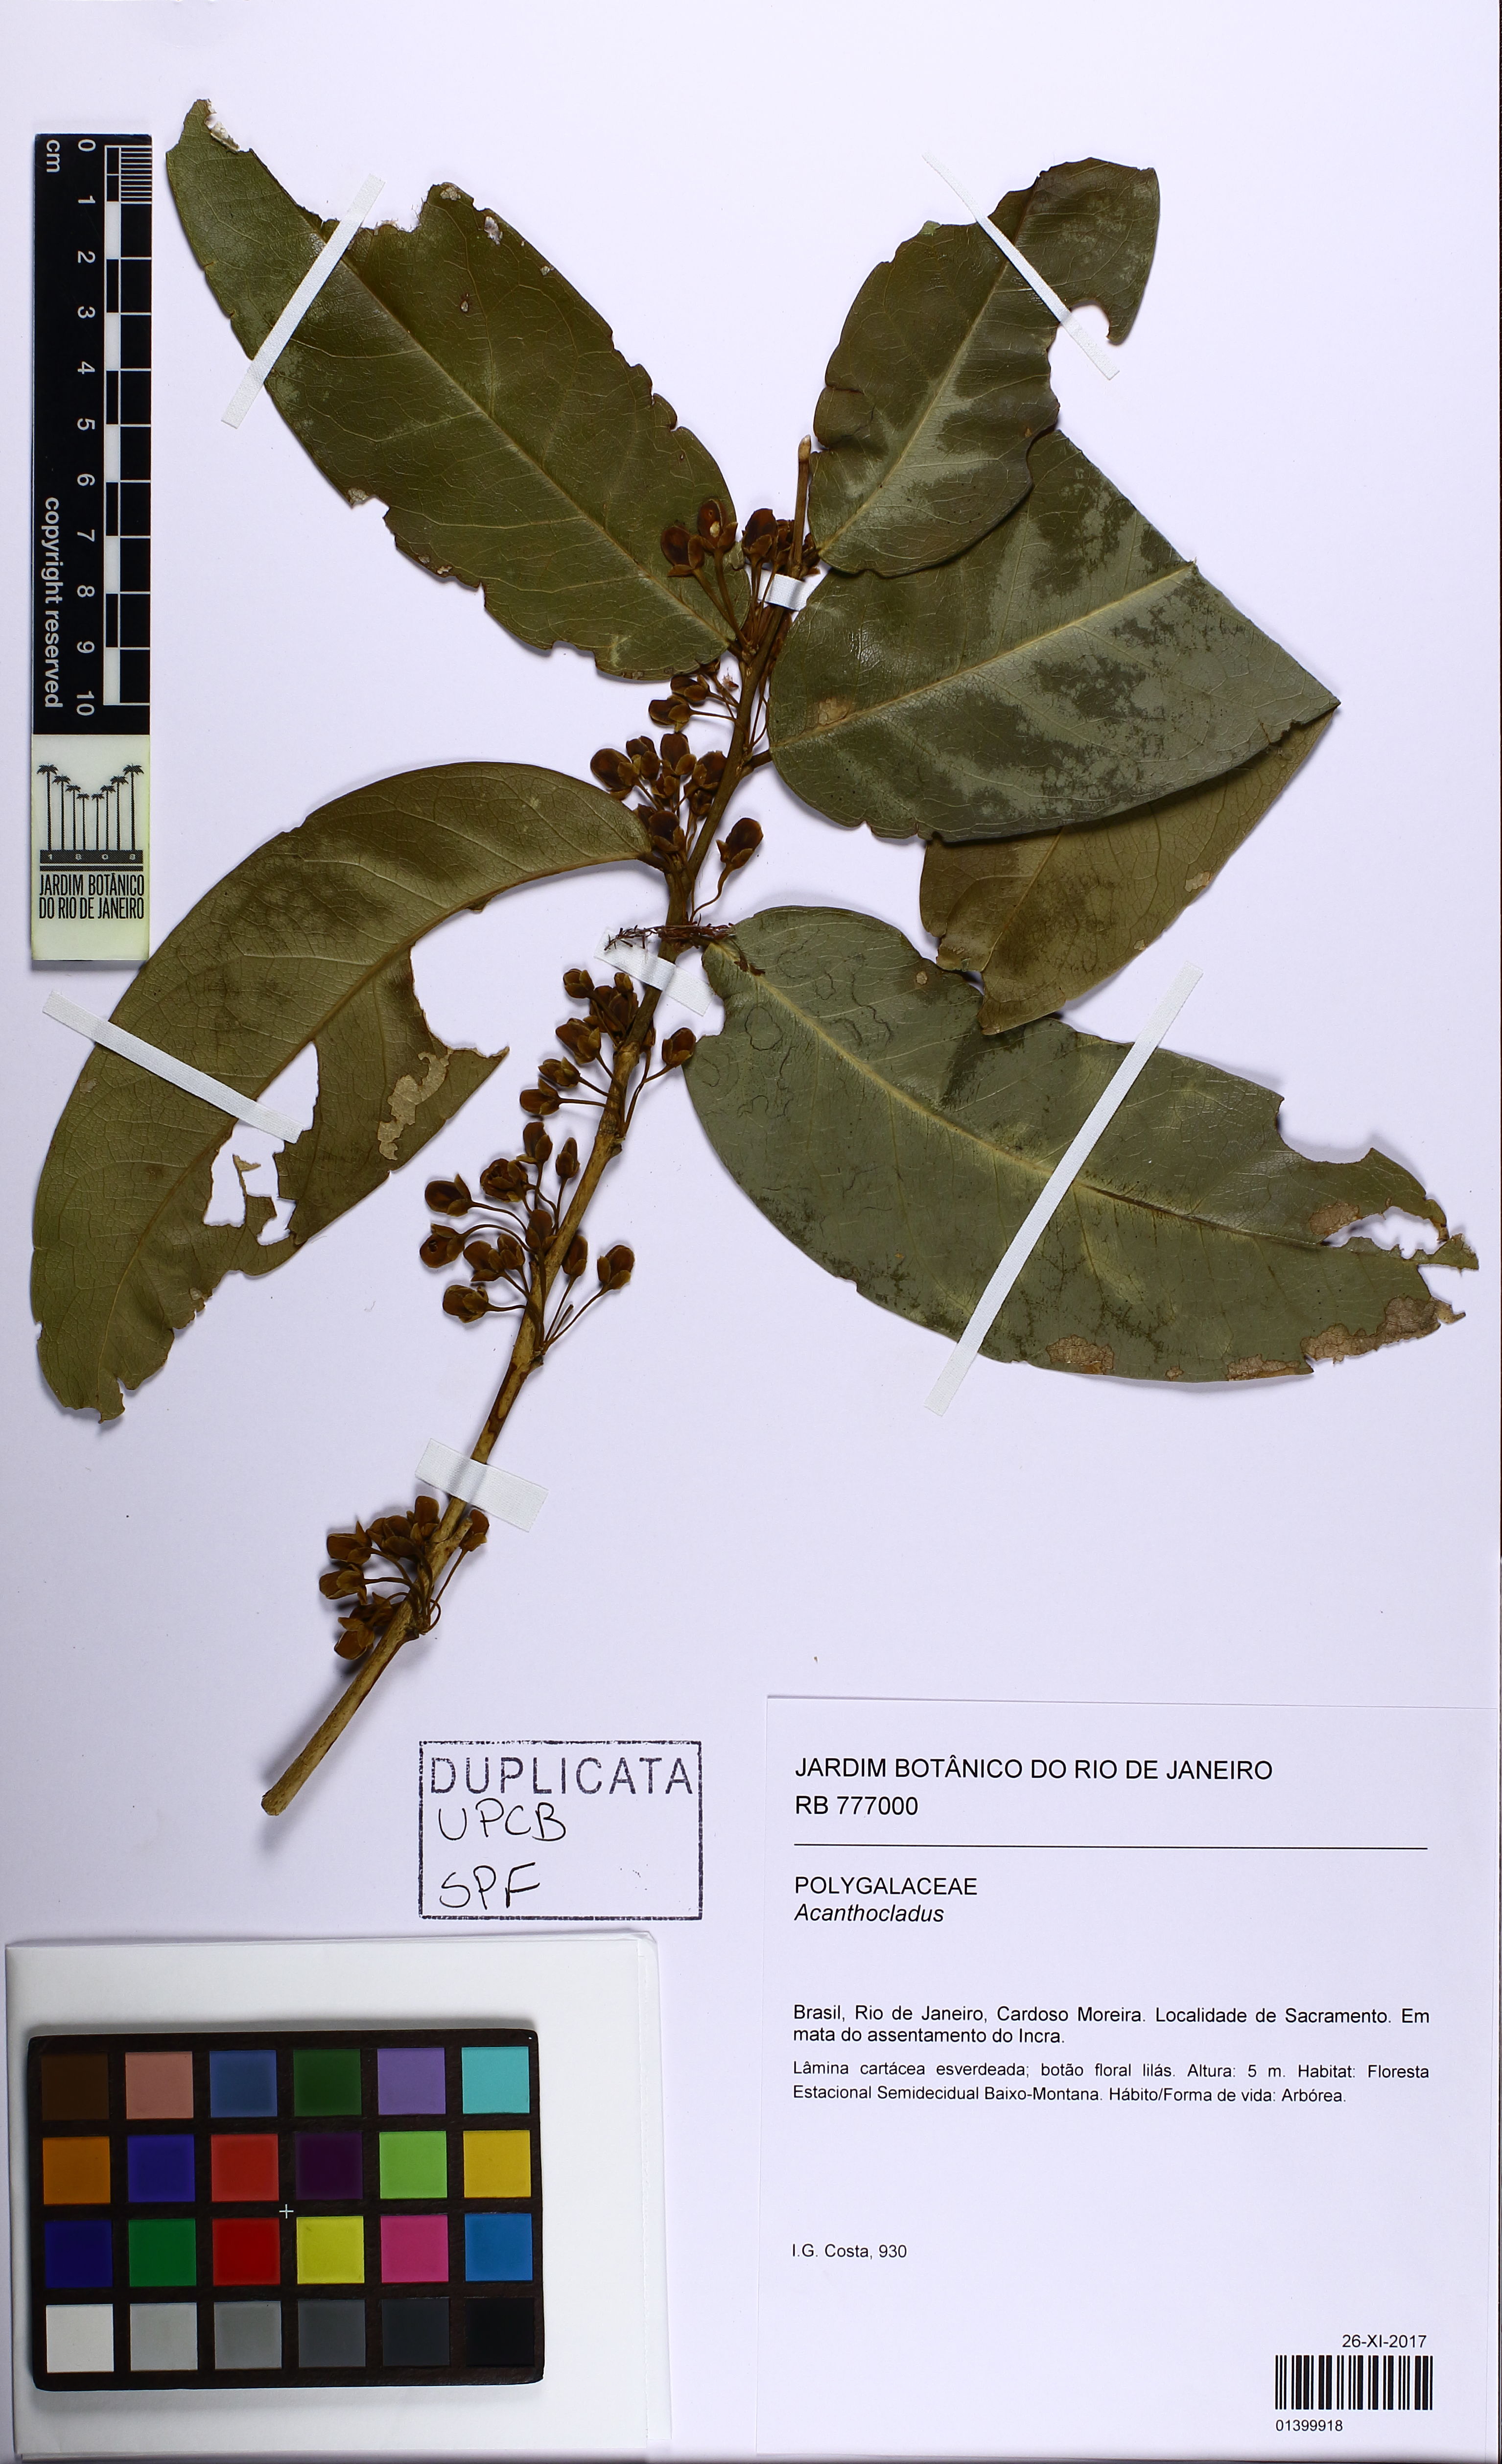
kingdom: Plantae
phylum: Tracheophyta
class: Magnoliopsida
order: Fabales
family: Polygalaceae
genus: Acanthocladus
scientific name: Acanthocladus
